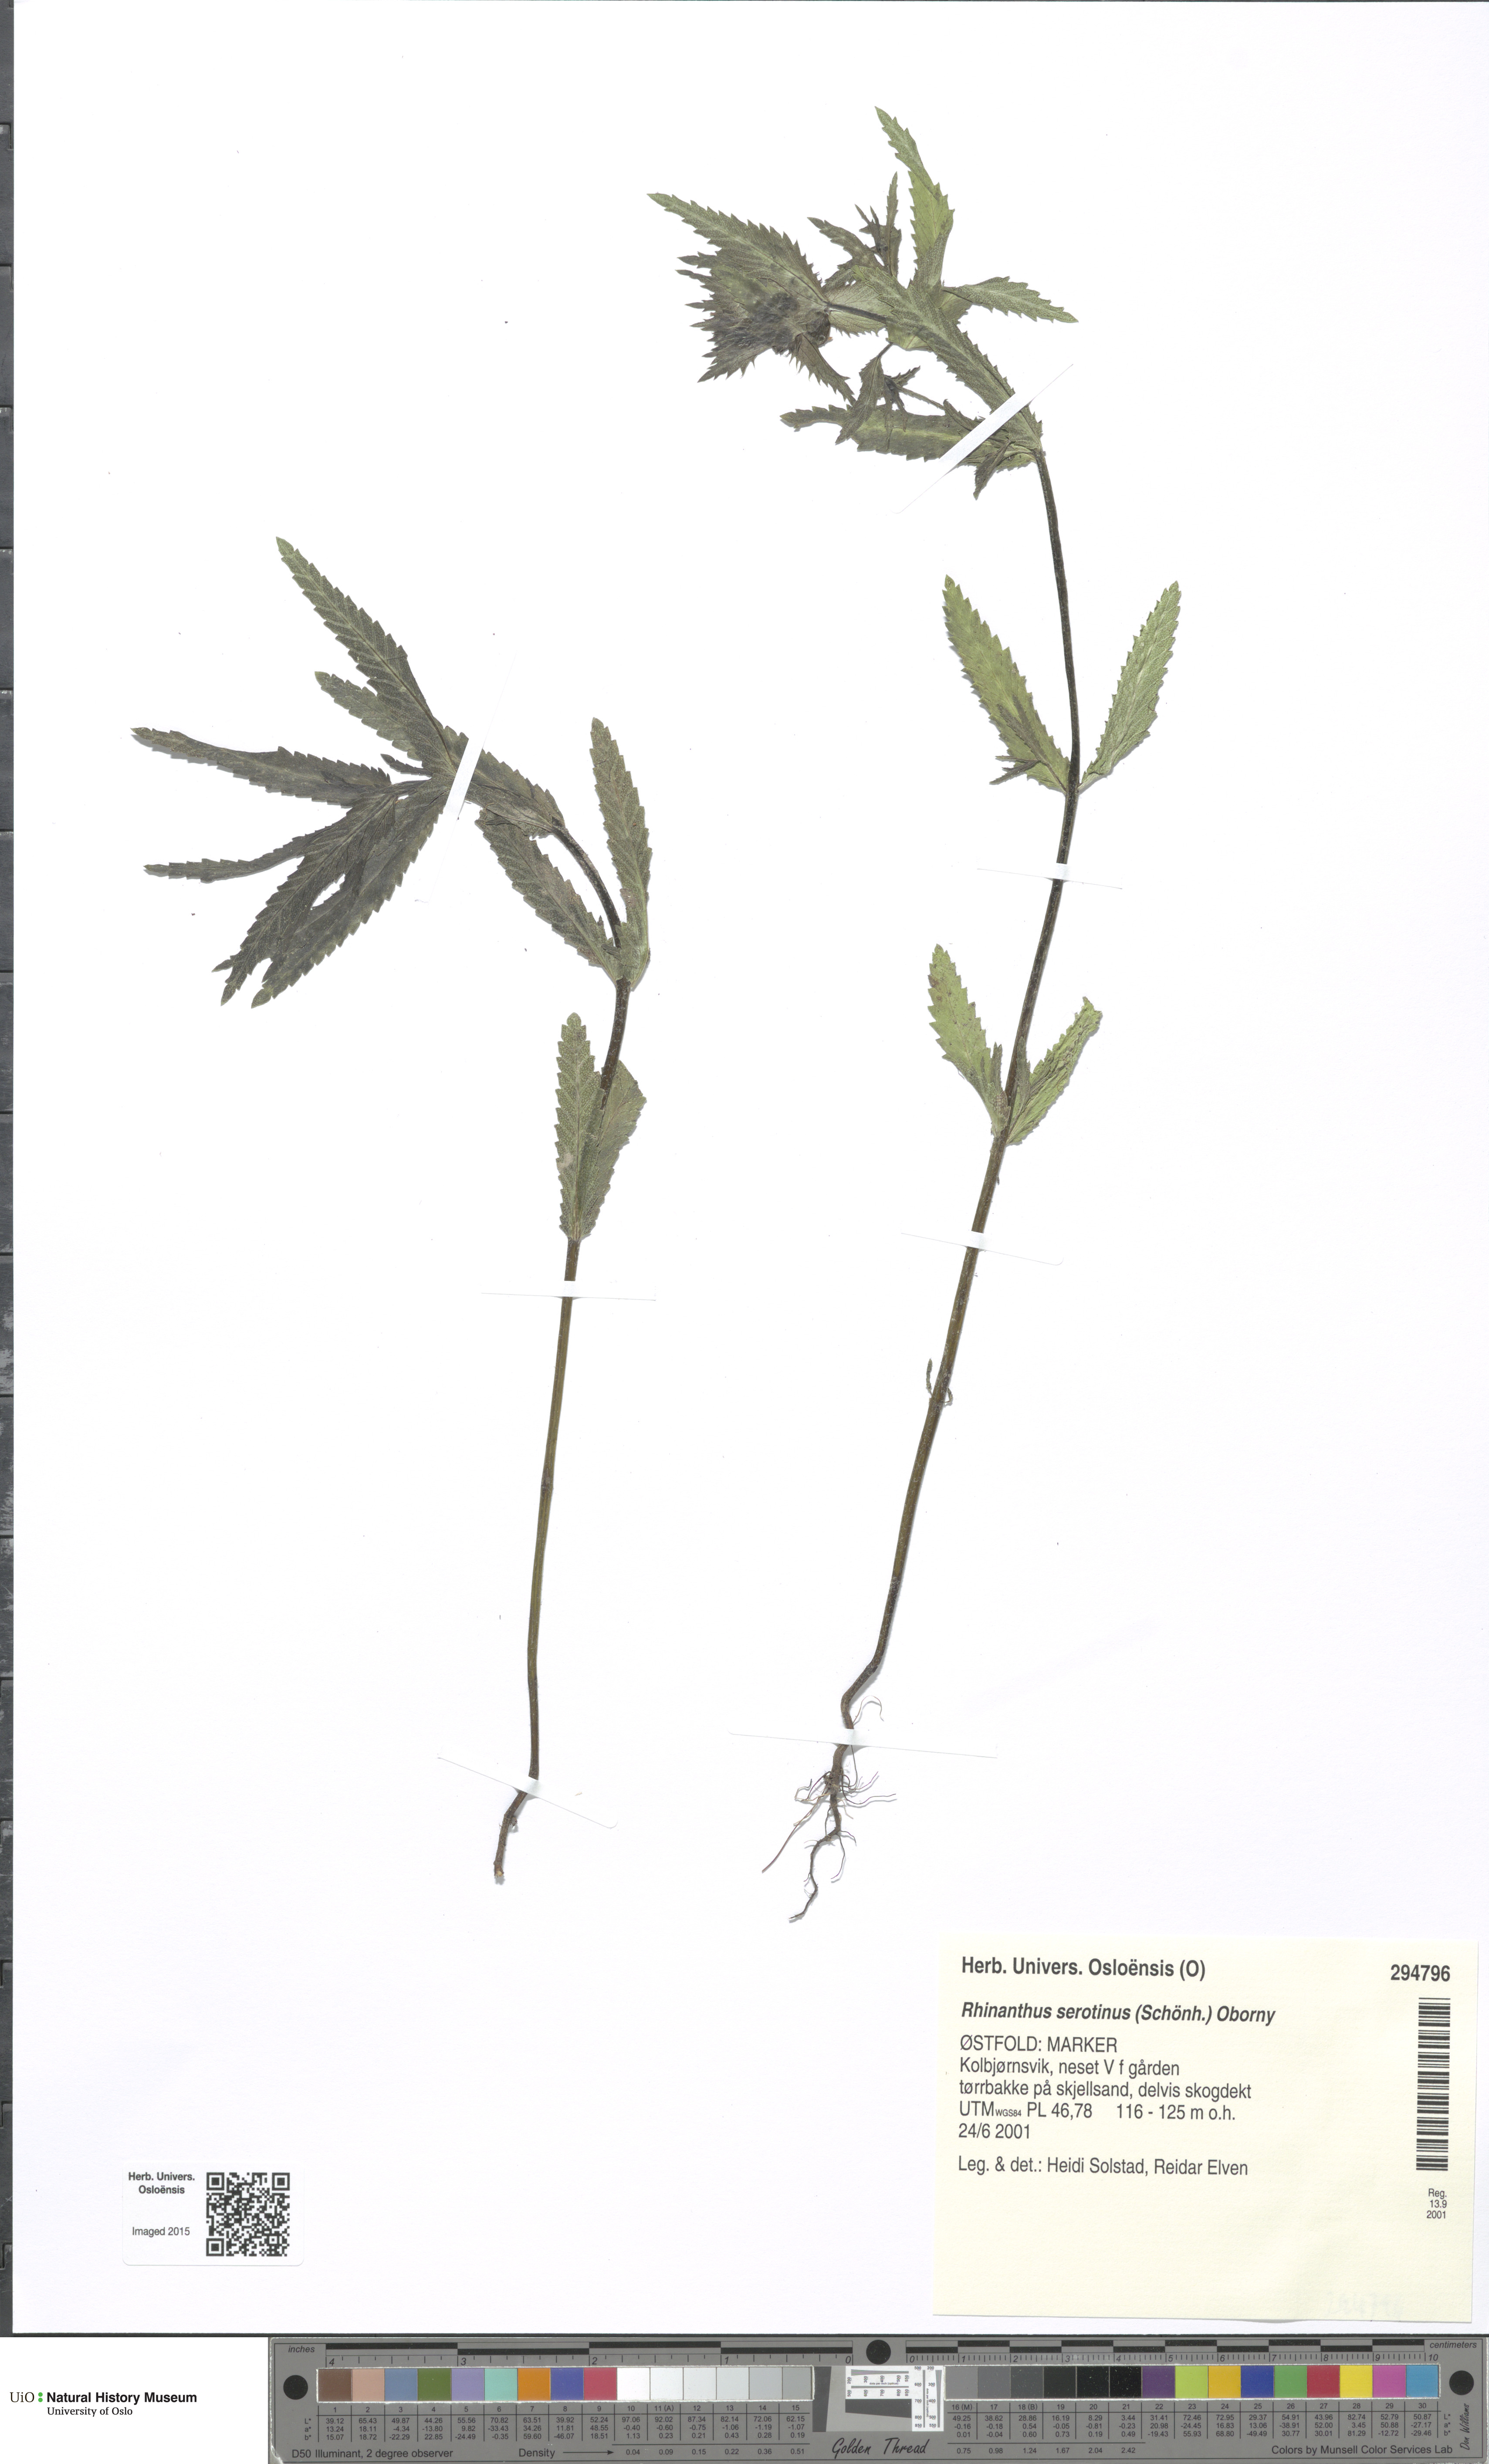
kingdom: Plantae
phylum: Tracheophyta
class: Magnoliopsida
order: Lamiales
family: Orobanchaceae
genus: Rhinanthus
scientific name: Rhinanthus
